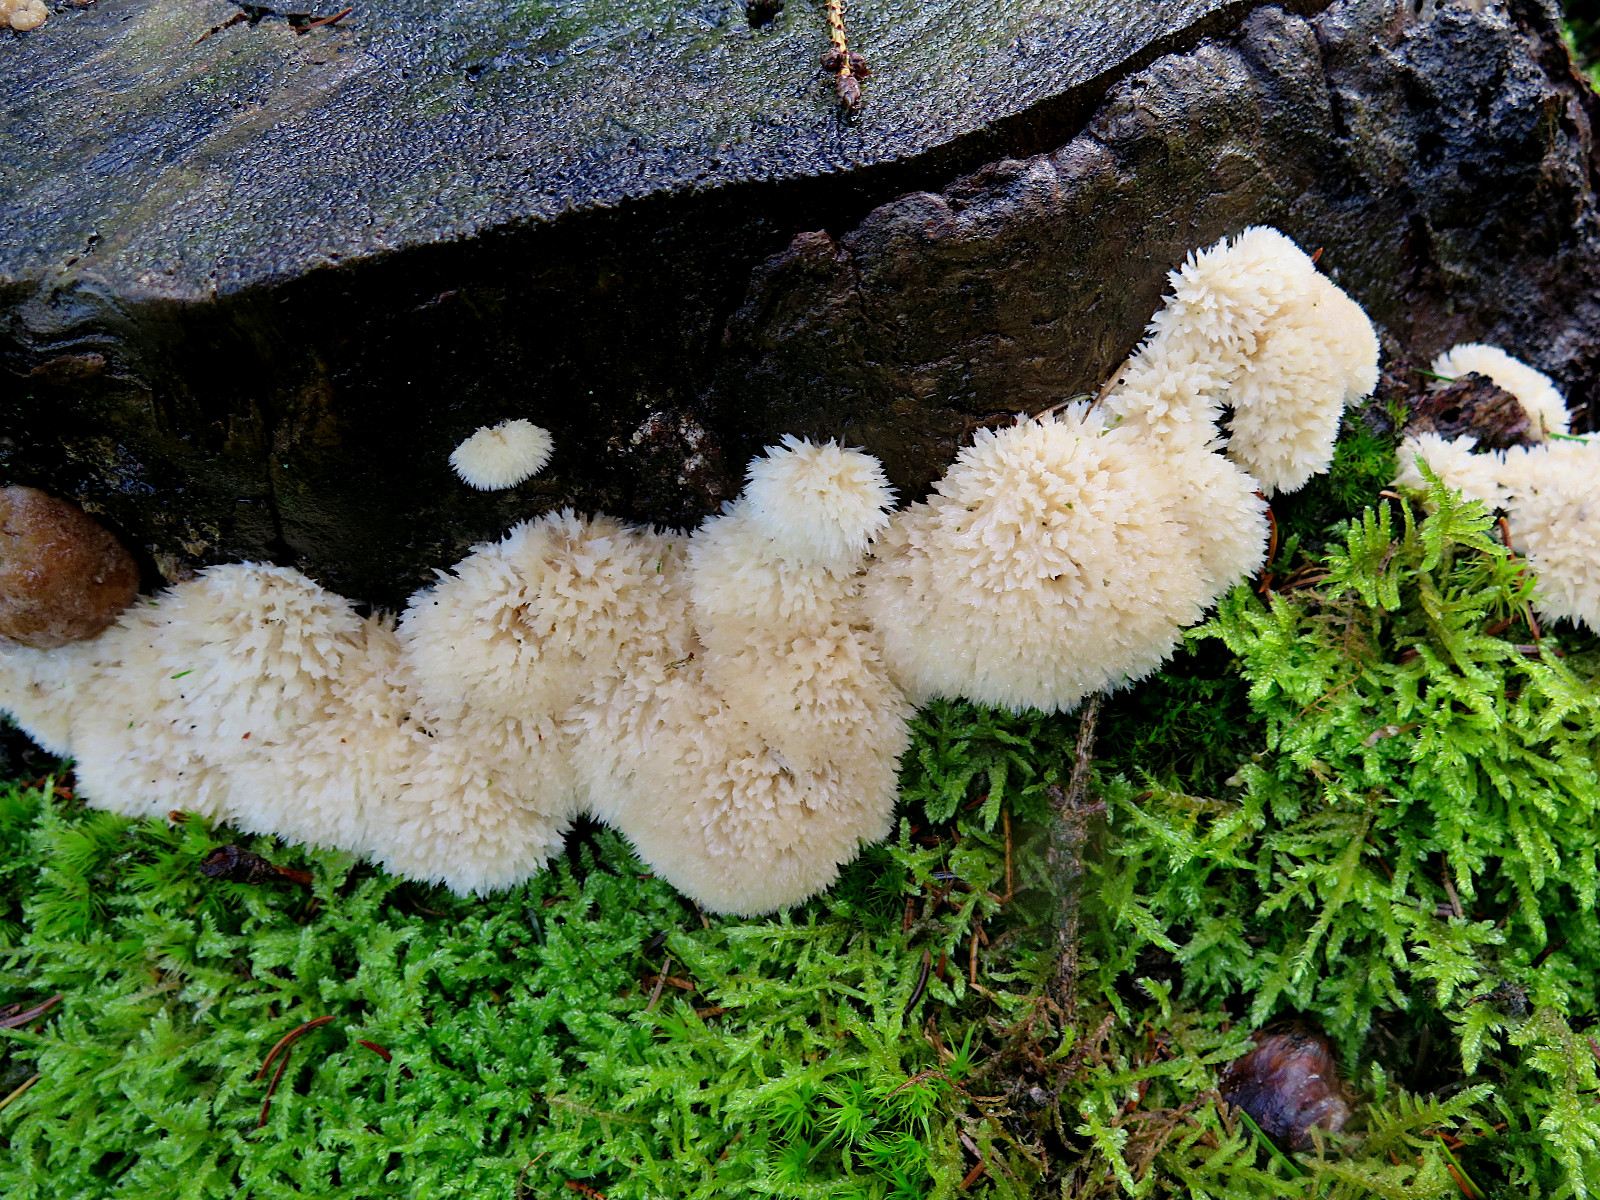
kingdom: Fungi
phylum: Basidiomycota
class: Agaricomycetes
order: Polyporales
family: Dacryobolaceae
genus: Postia
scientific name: Postia ptychogaster
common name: støvende kødporesvamp
